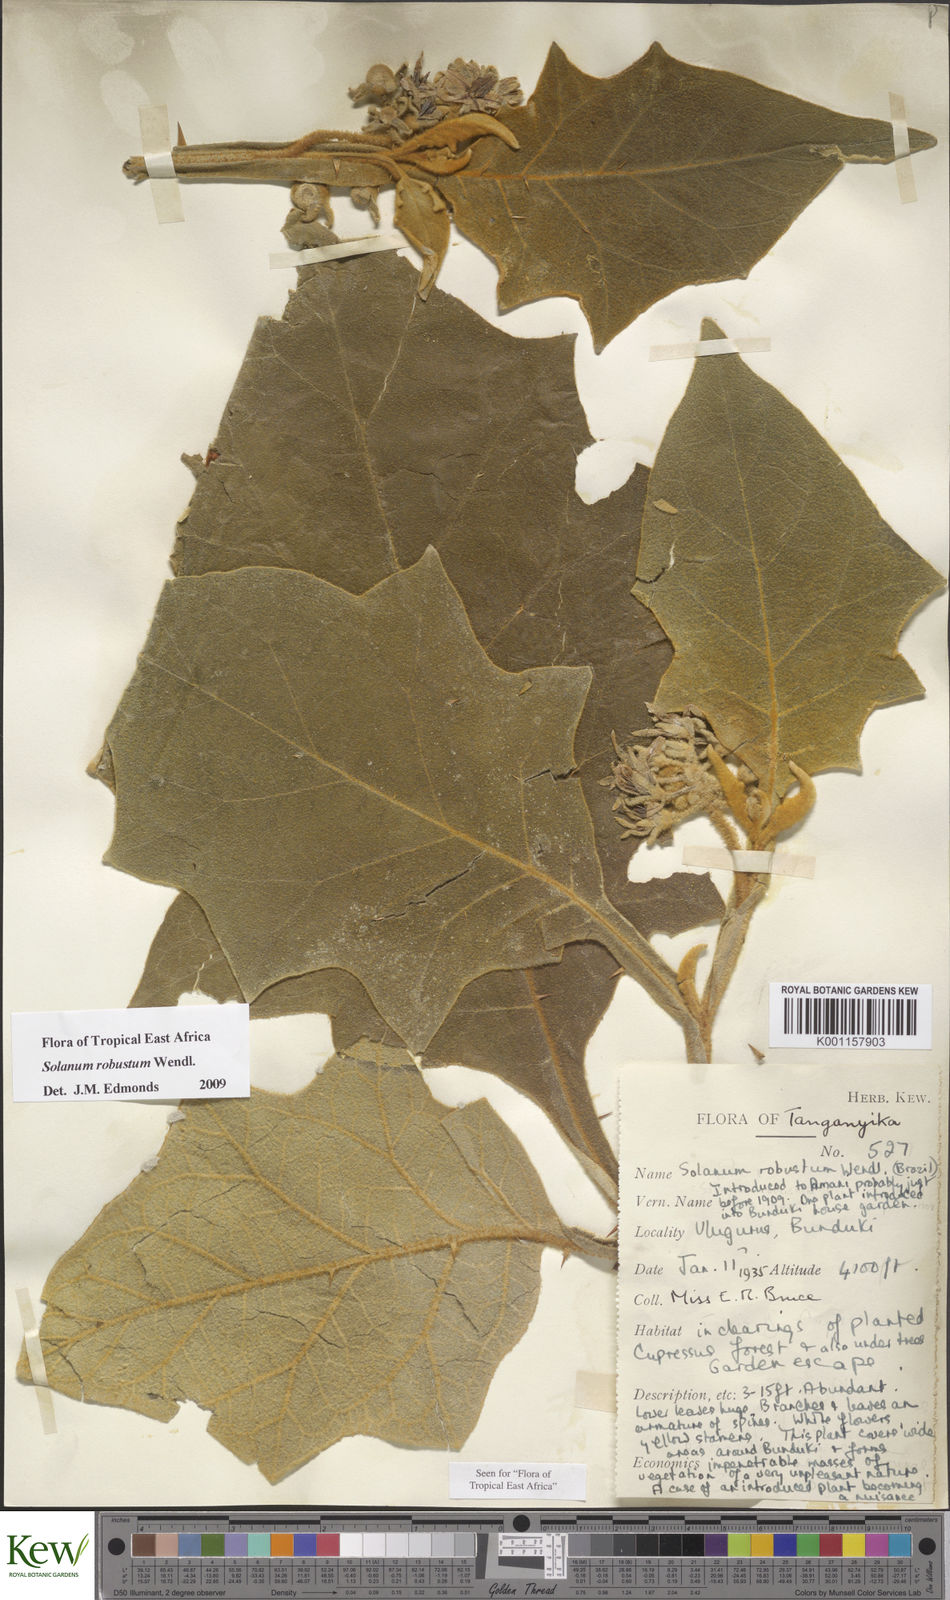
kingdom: Plantae
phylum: Tracheophyta
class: Magnoliopsida
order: Solanales
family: Solanaceae
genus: Solanum
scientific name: Solanum robustum
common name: Shrubby nightshade
